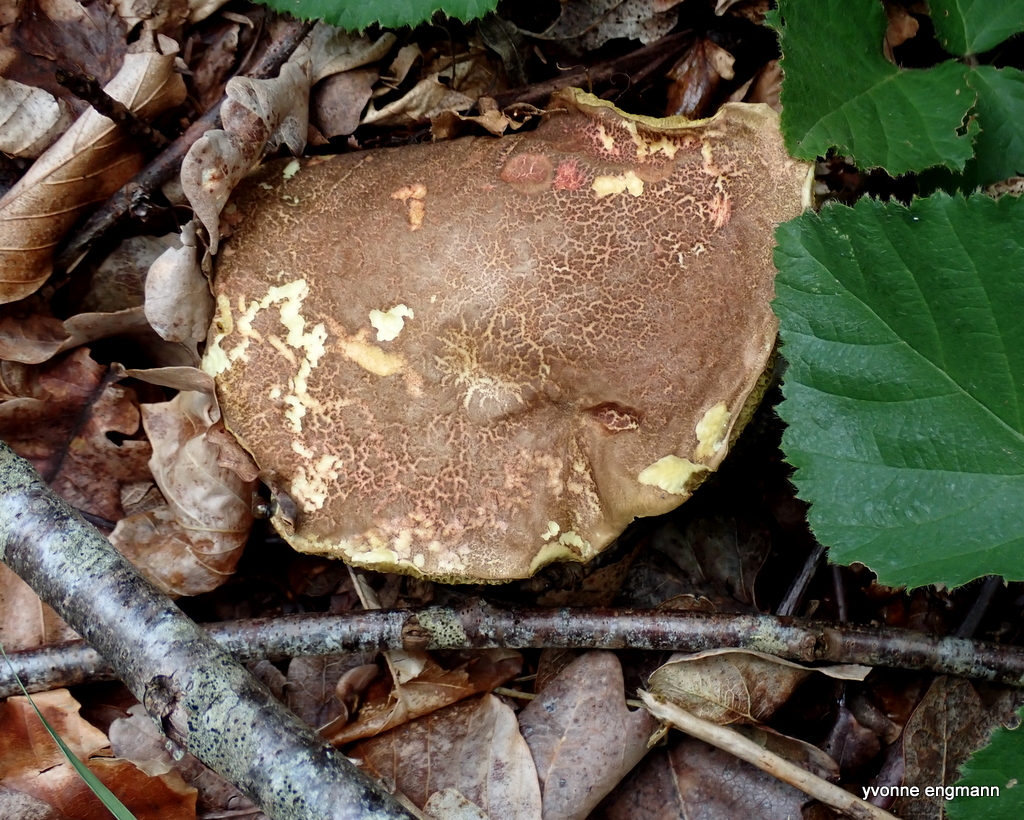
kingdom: Fungi
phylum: Basidiomycota
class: Agaricomycetes
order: Boletales
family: Boletaceae
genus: Xerocomellus
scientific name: Xerocomellus chrysenteron
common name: rødsprukken rørhat
